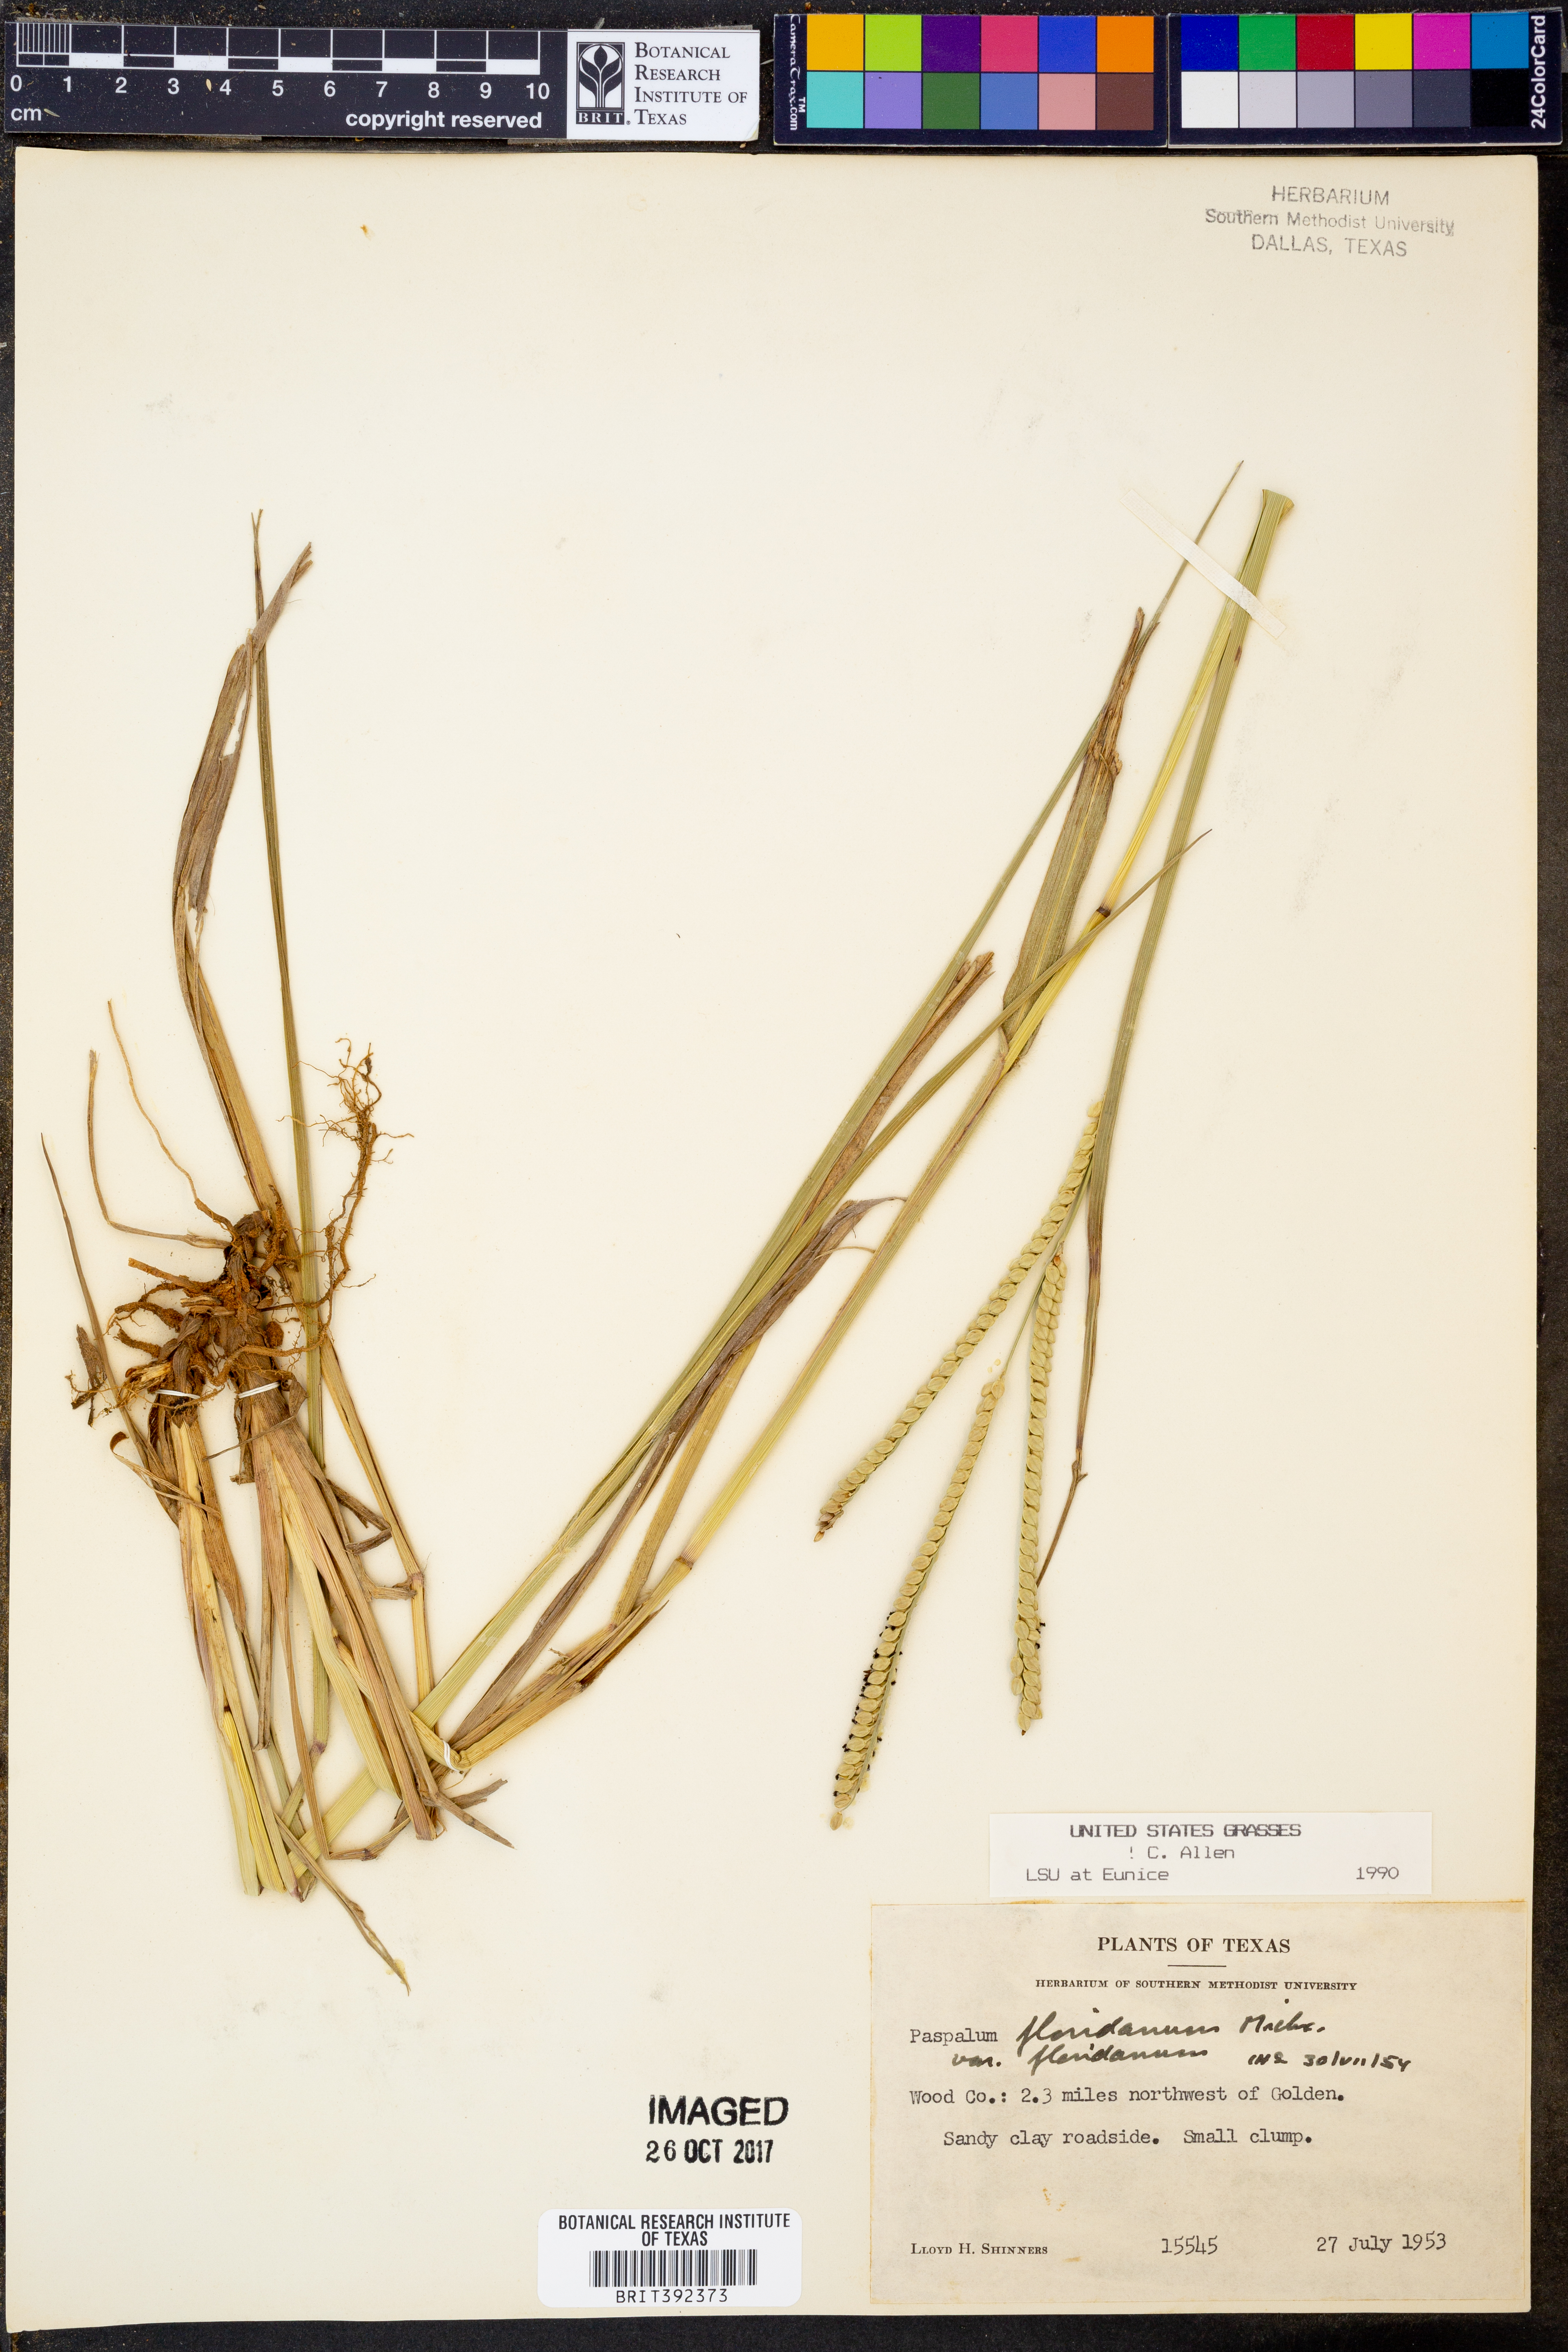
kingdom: Plantae
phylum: Tracheophyta
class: Liliopsida
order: Poales
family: Poaceae
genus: Paspalum
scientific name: Paspalum floridanum
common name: Florida paspalum
